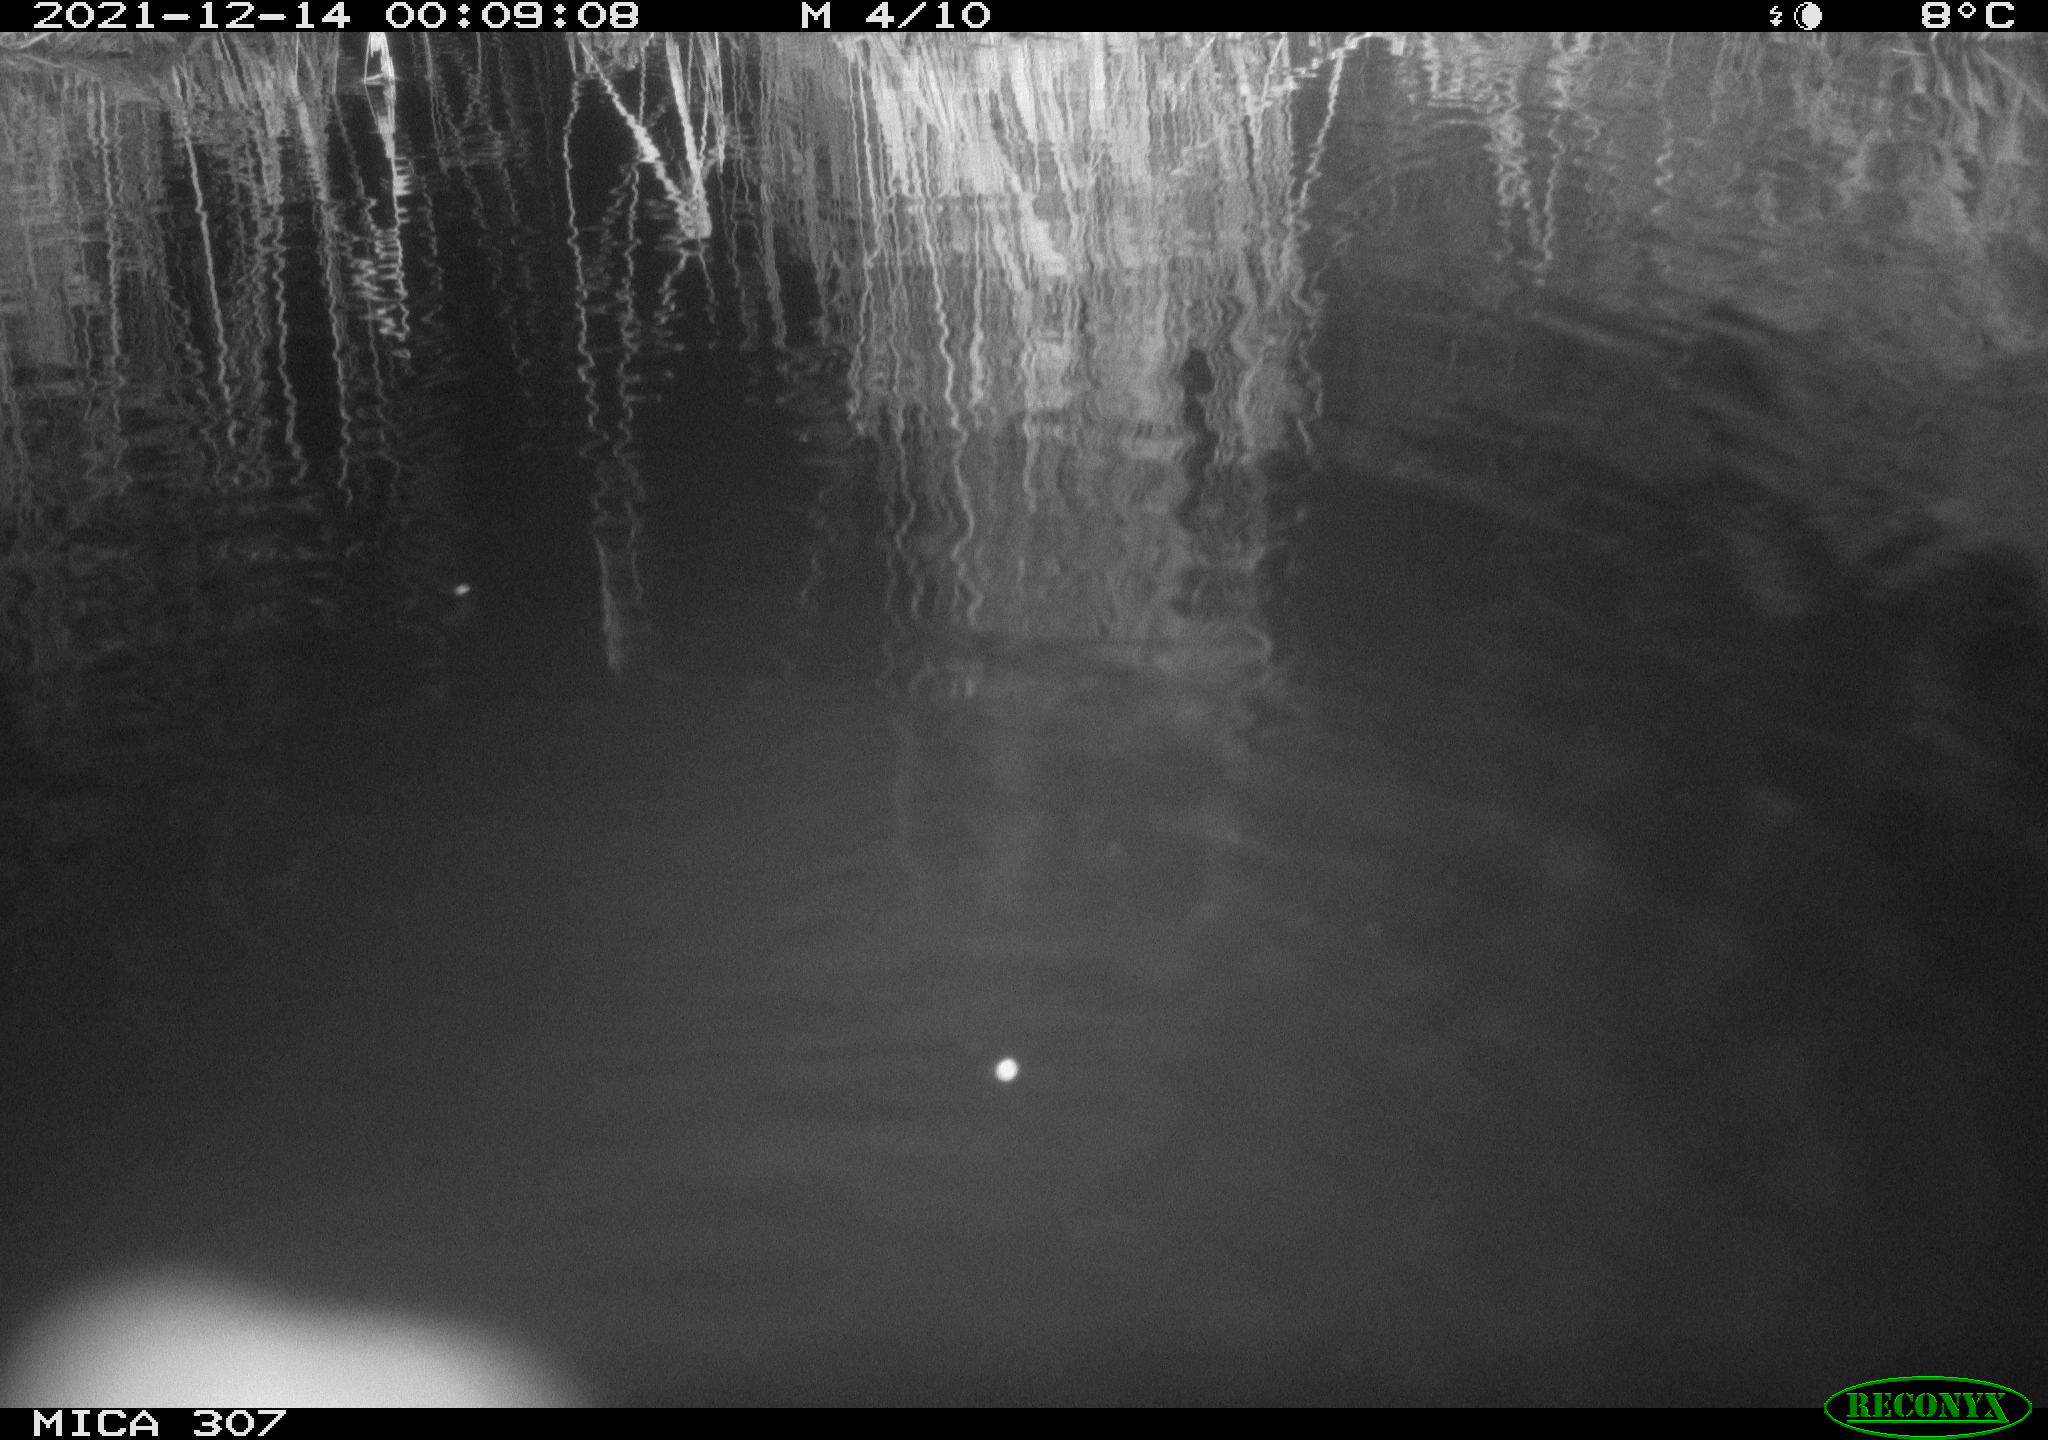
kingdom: Animalia
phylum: Chordata
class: Mammalia
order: Rodentia
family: Cricetidae
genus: Ondatra
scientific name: Ondatra zibethicus
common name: Muskrat
